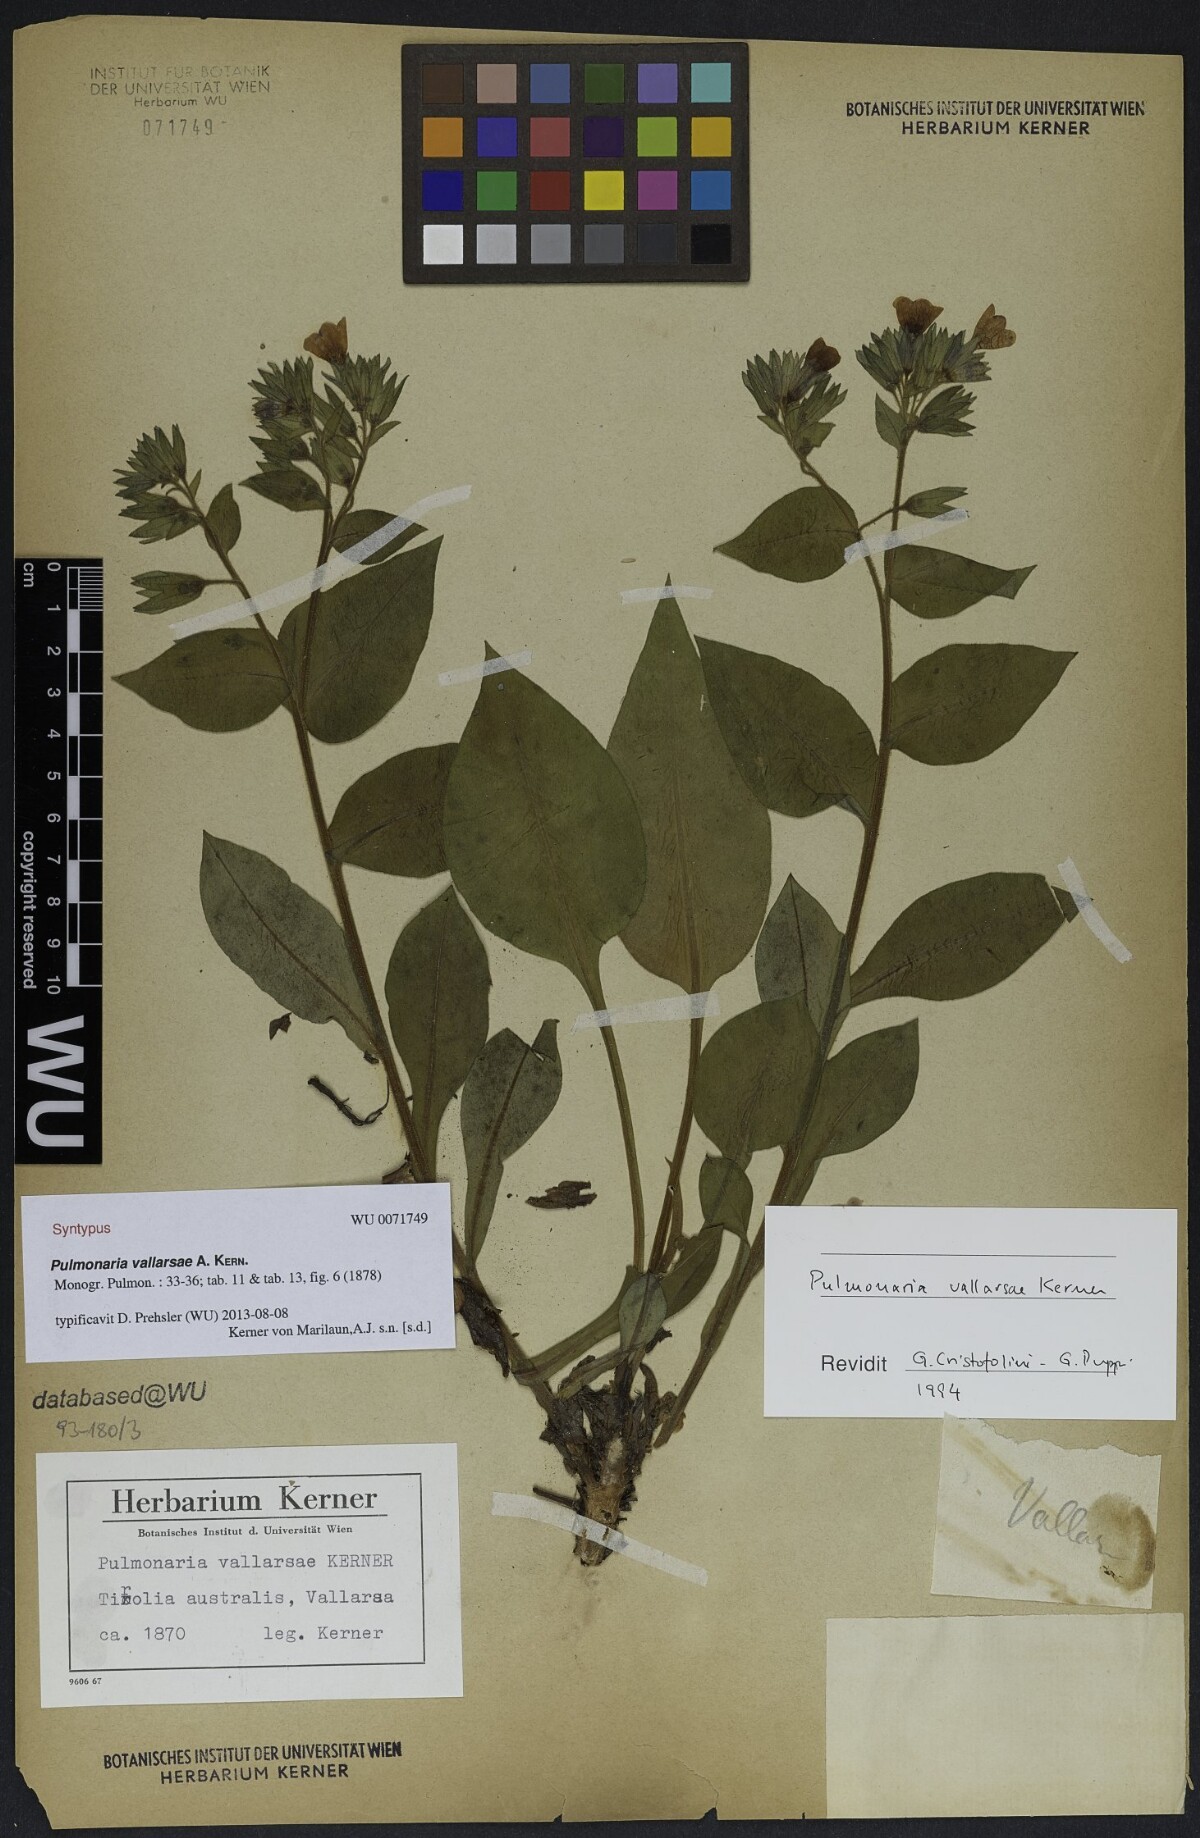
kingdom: Plantae
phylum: Tracheophyta
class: Magnoliopsida
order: Boraginales
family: Boraginaceae
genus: Pulmonaria
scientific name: Pulmonaria hirta
